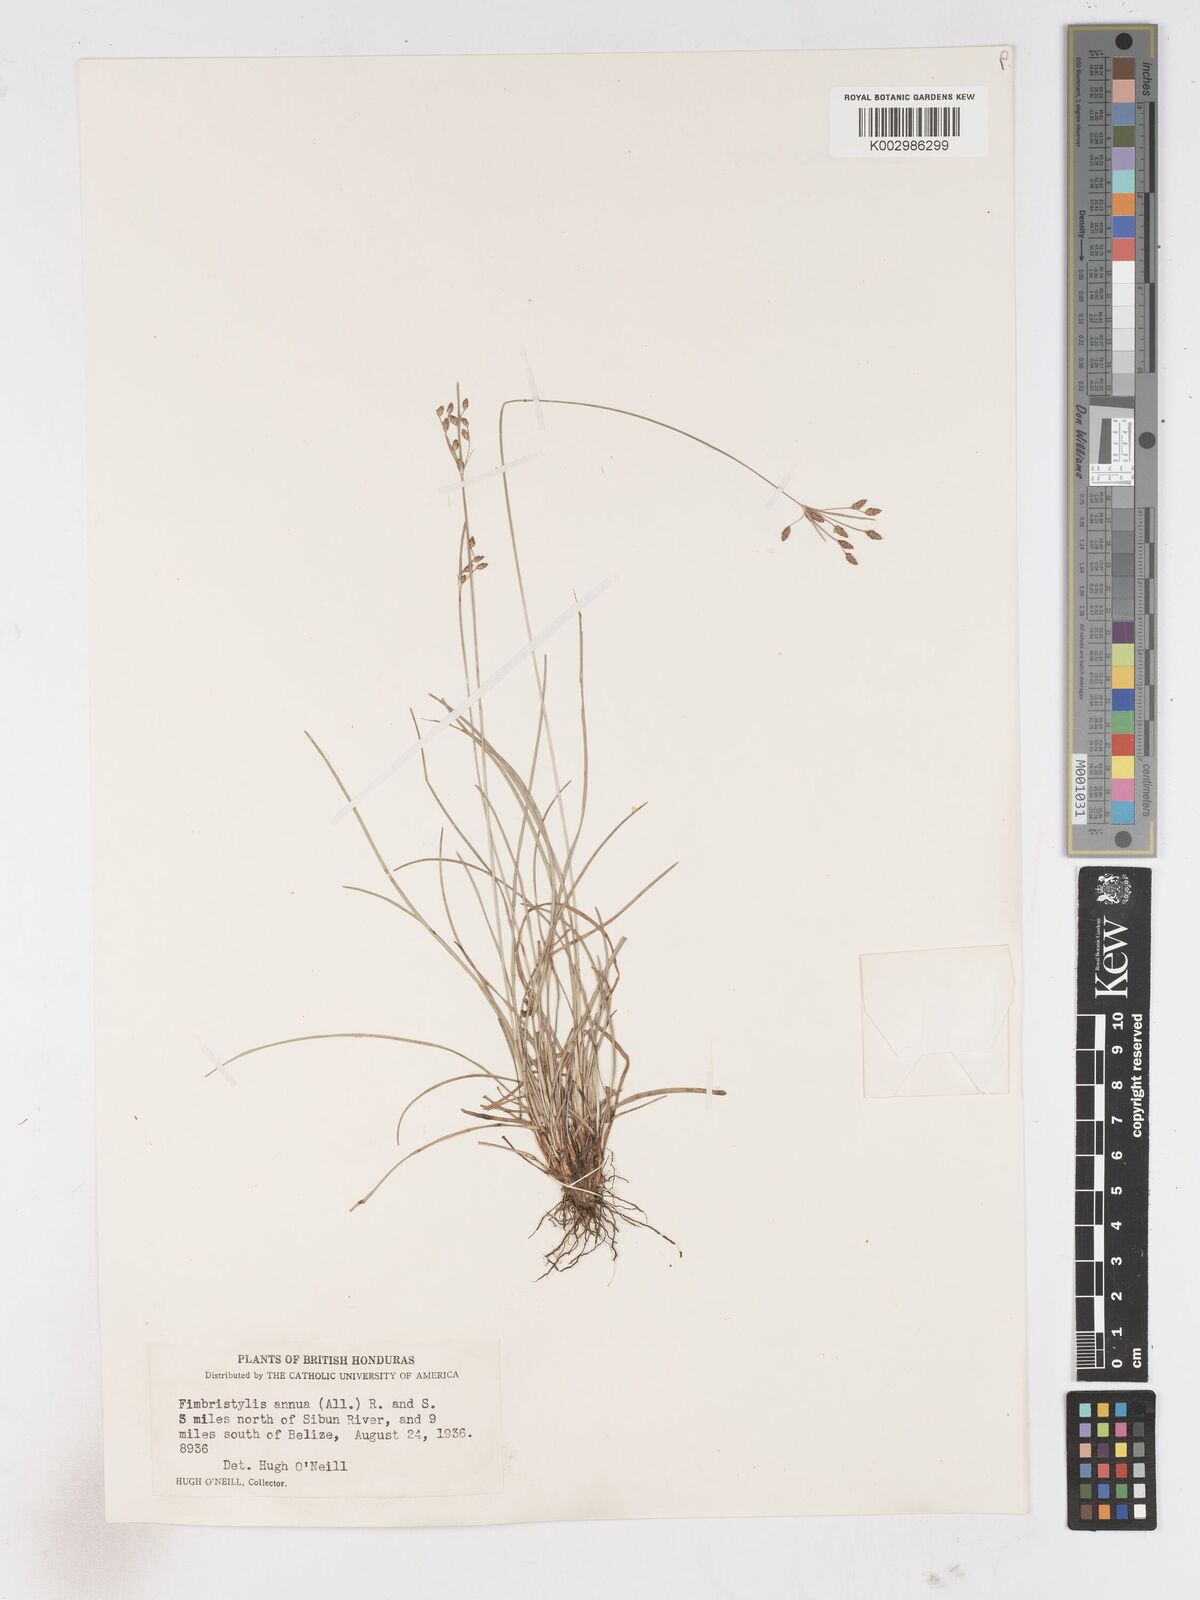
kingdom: Plantae
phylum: Tracheophyta
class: Liliopsida
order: Poales
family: Cyperaceae
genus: Fimbristylis
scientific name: Fimbristylis dichotoma
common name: Forked fimbry
